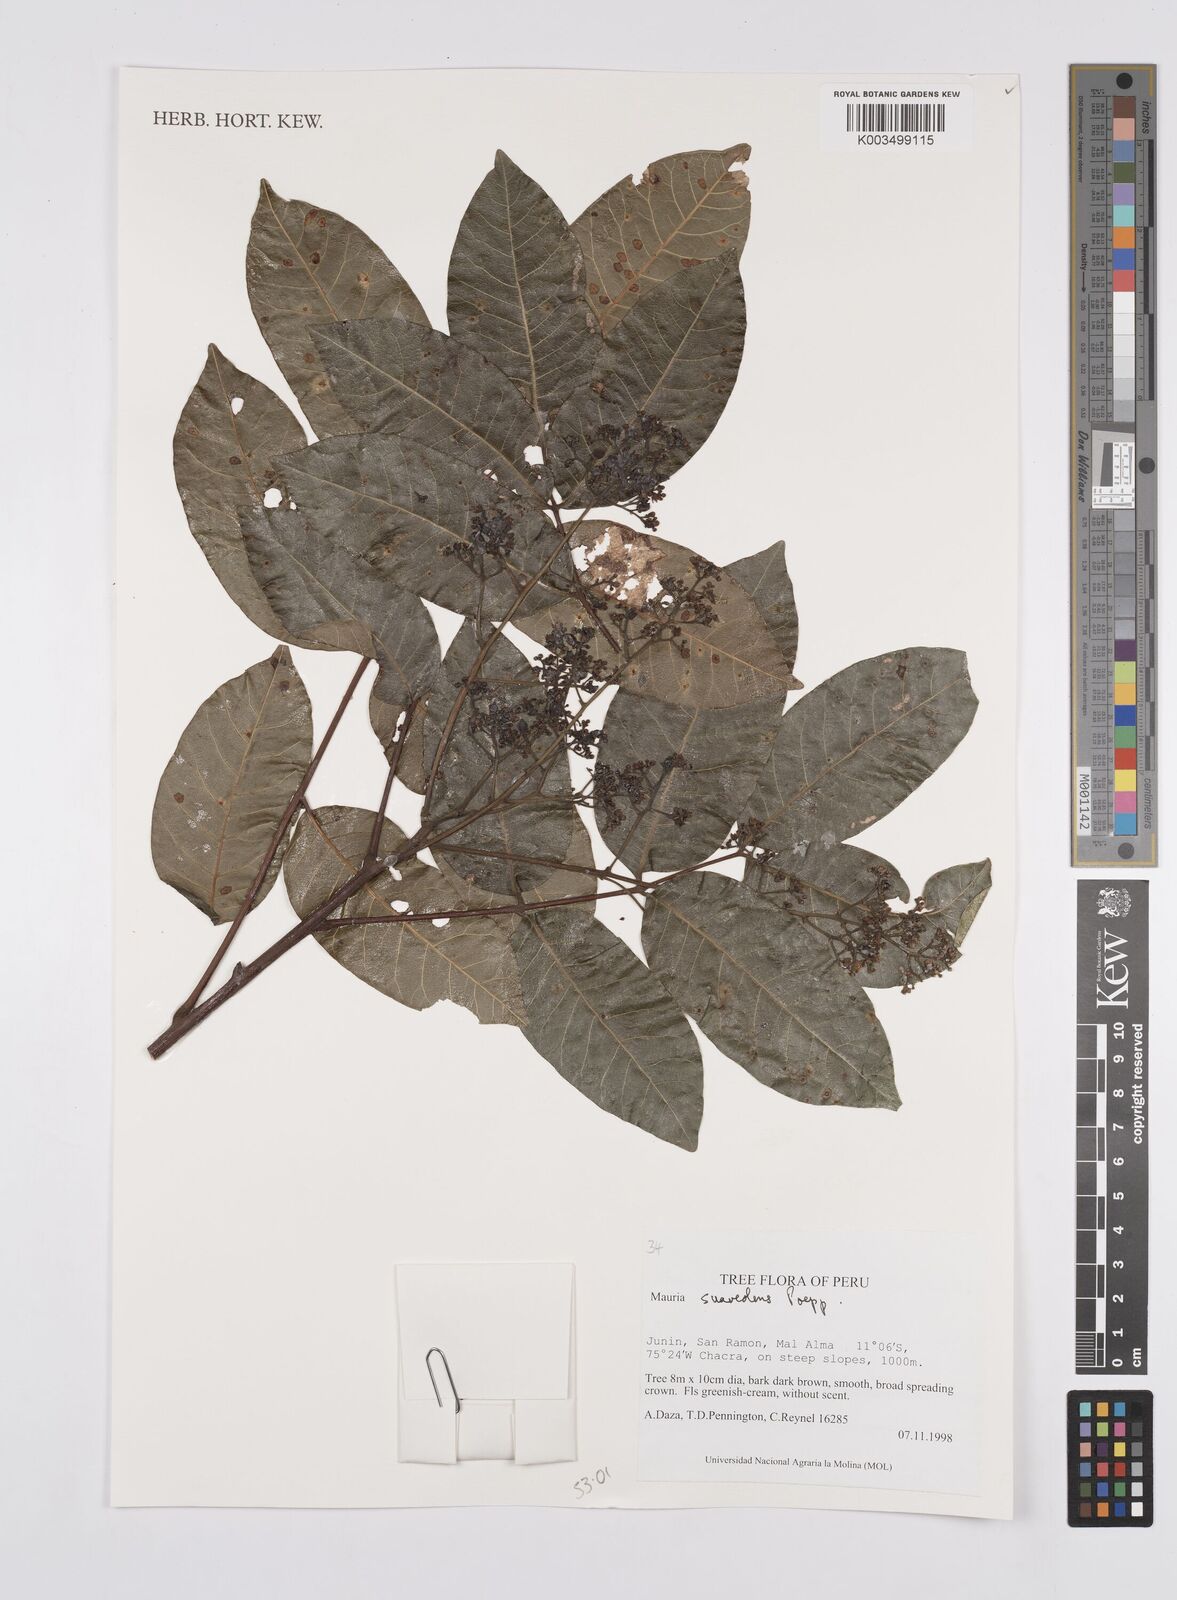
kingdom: Plantae
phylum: Tracheophyta
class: Magnoliopsida
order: Sapindales
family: Anacardiaceae
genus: Mauria
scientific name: Mauria heterophylla
